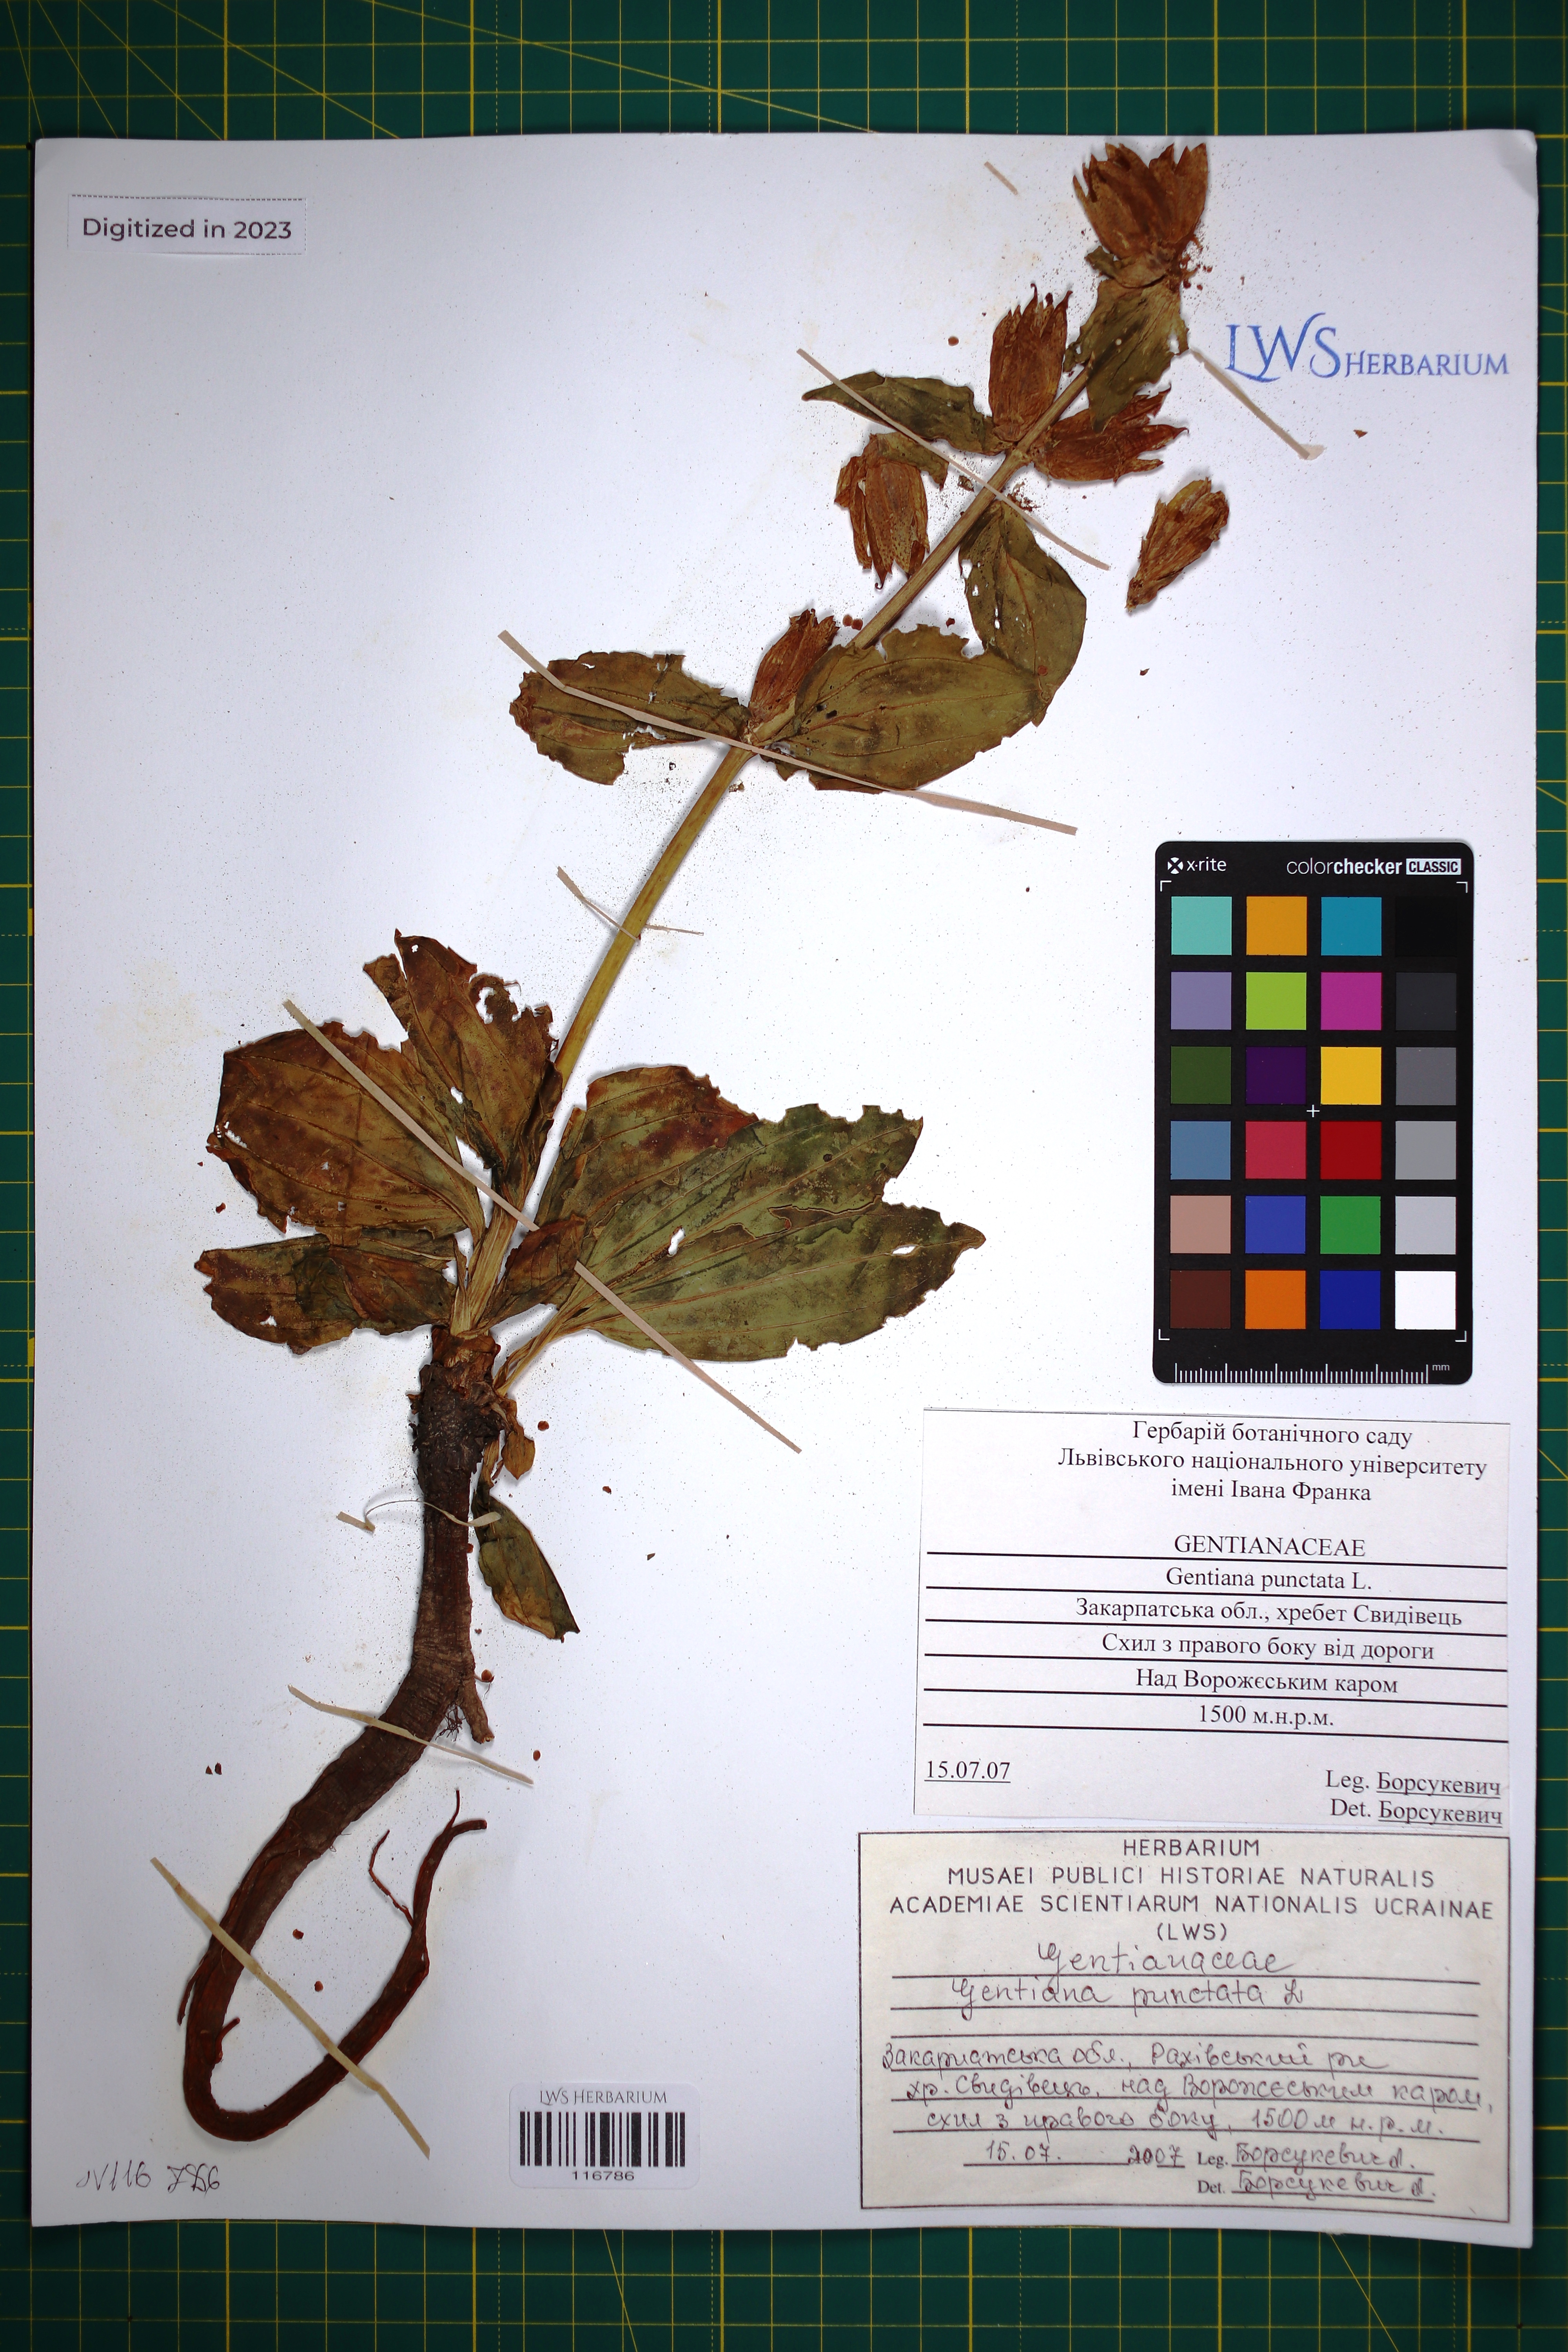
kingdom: Plantae
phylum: Tracheophyta
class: Magnoliopsida
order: Gentianales
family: Gentianaceae
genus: Gentiana
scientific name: Gentiana punctata
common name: Spotted gentian
